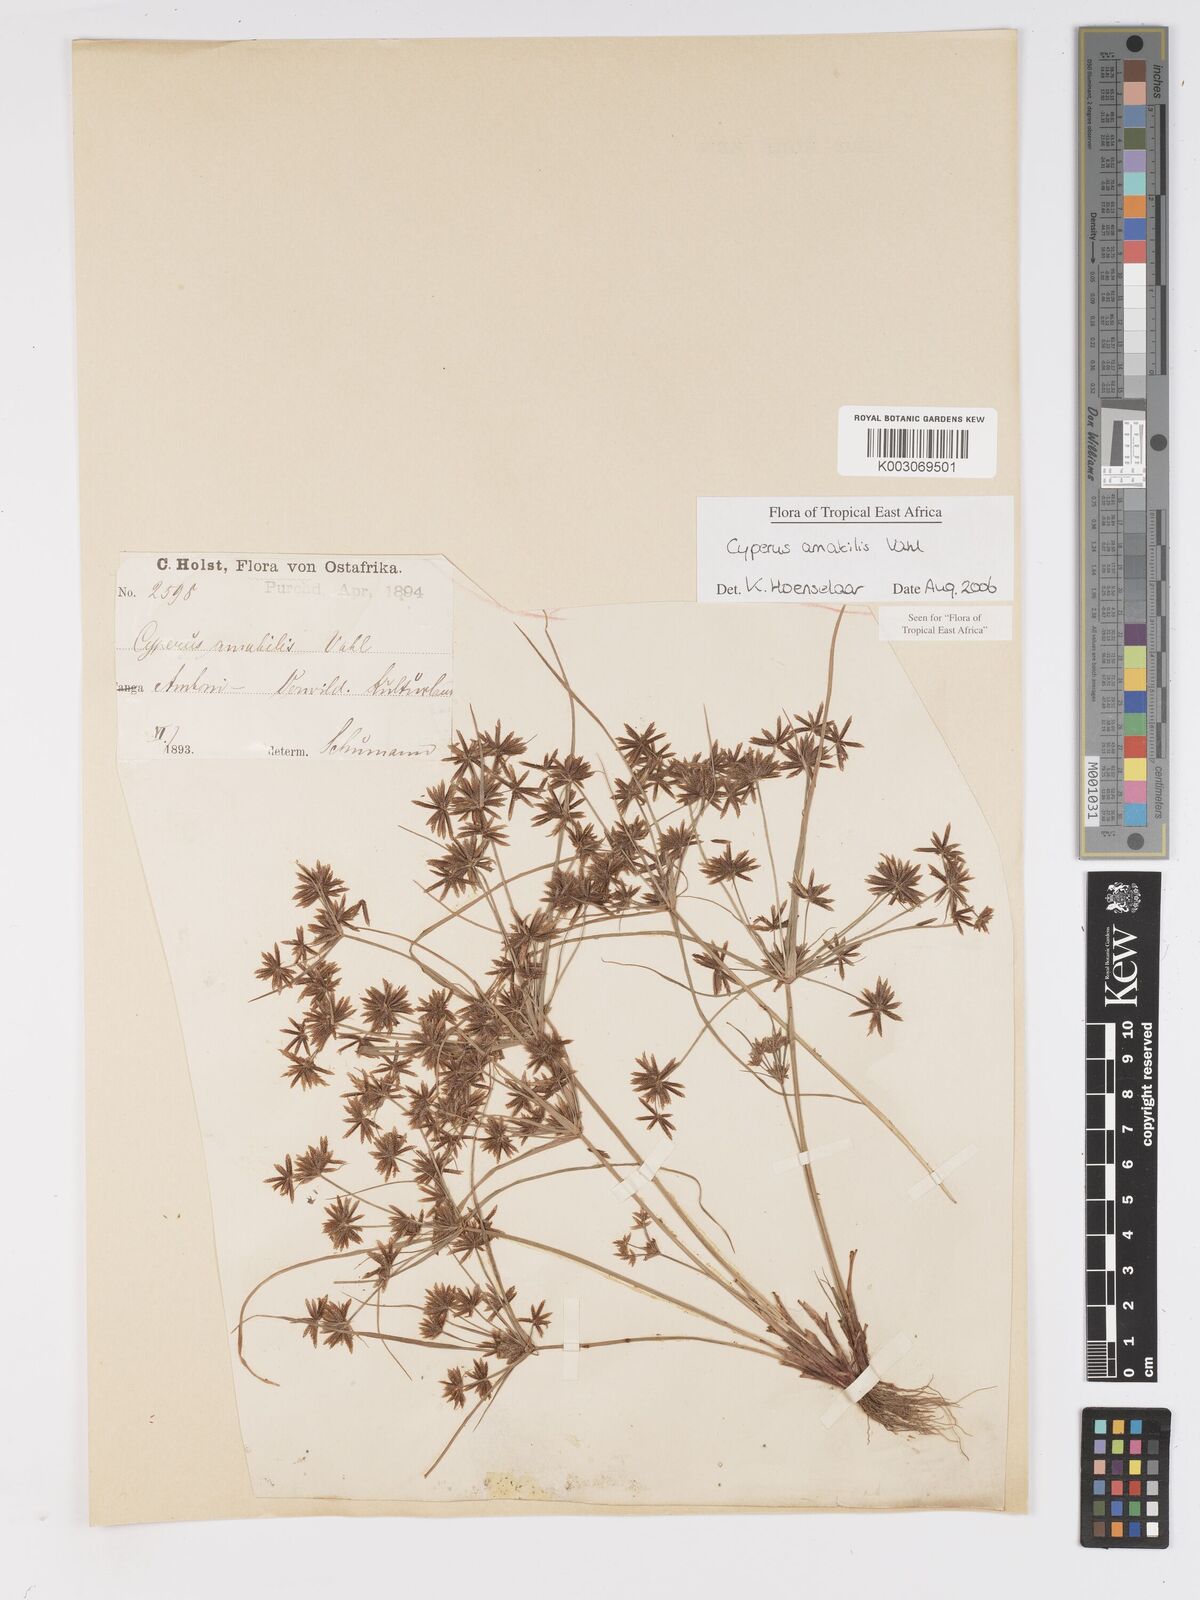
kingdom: Plantae
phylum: Tracheophyta
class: Liliopsida
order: Poales
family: Cyperaceae
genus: Cyperus
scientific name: Cyperus amabilis
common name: Foothill flat sedge
